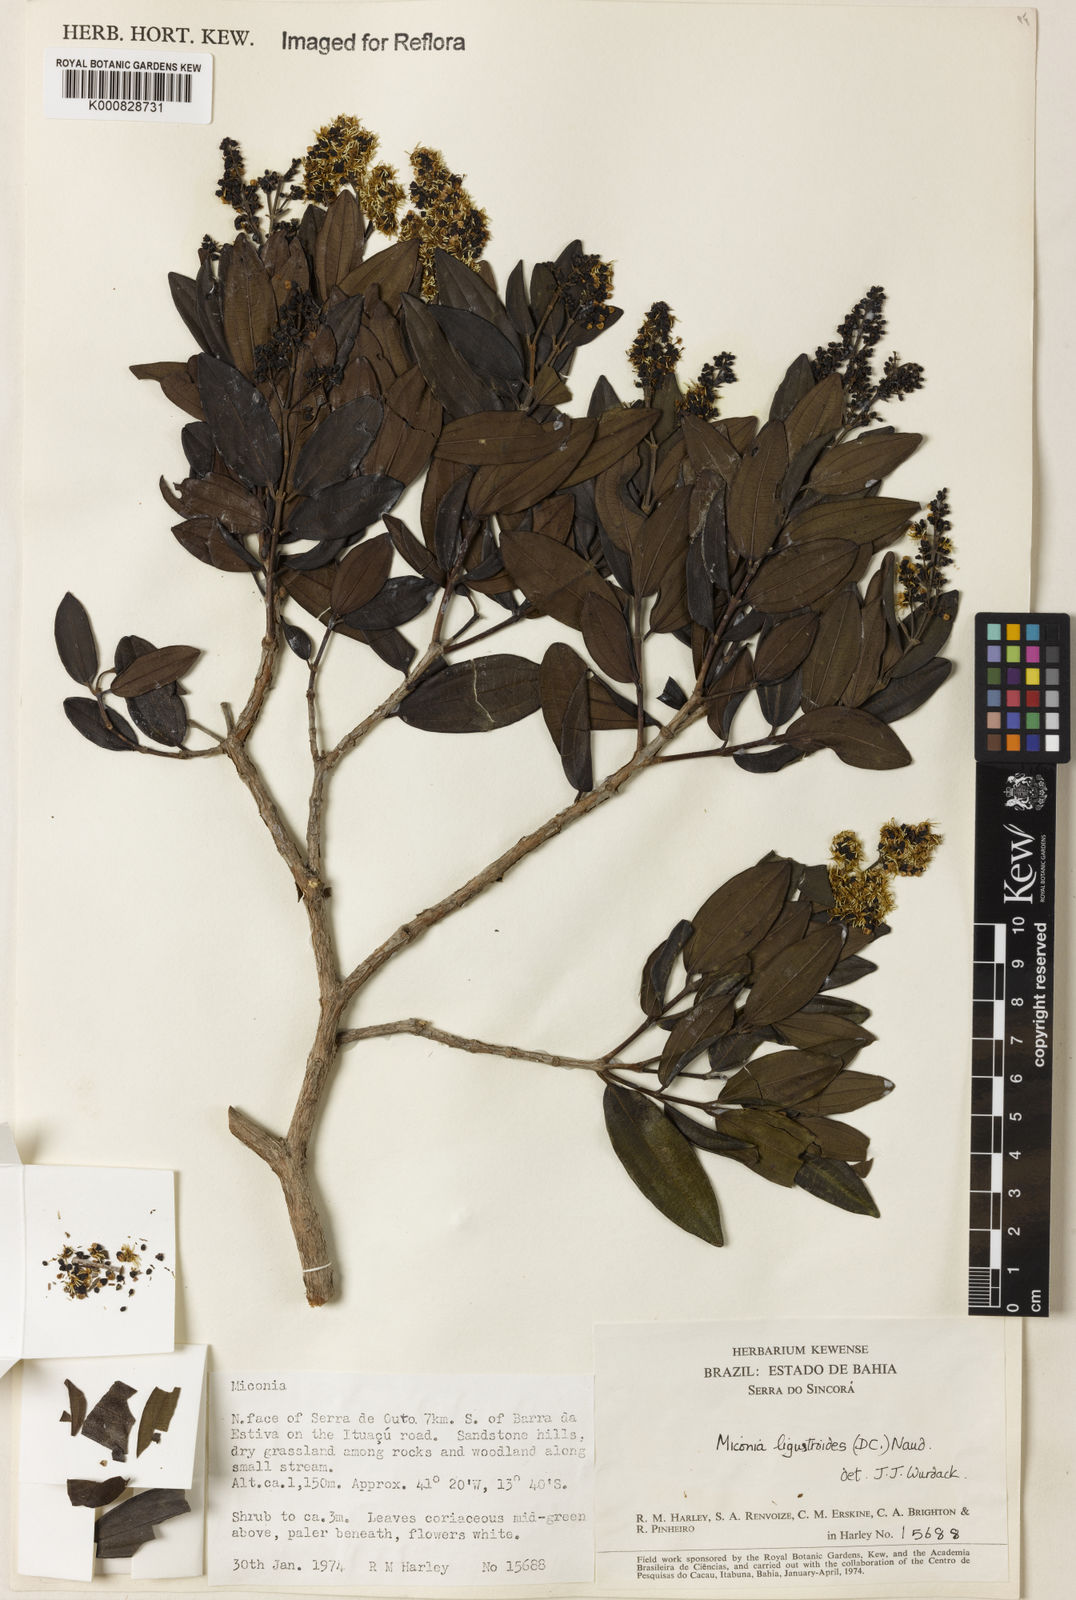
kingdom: Plantae
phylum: Tracheophyta
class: Magnoliopsida
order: Myrtales
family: Melastomataceae
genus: Miconia
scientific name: Miconia ligustroides
